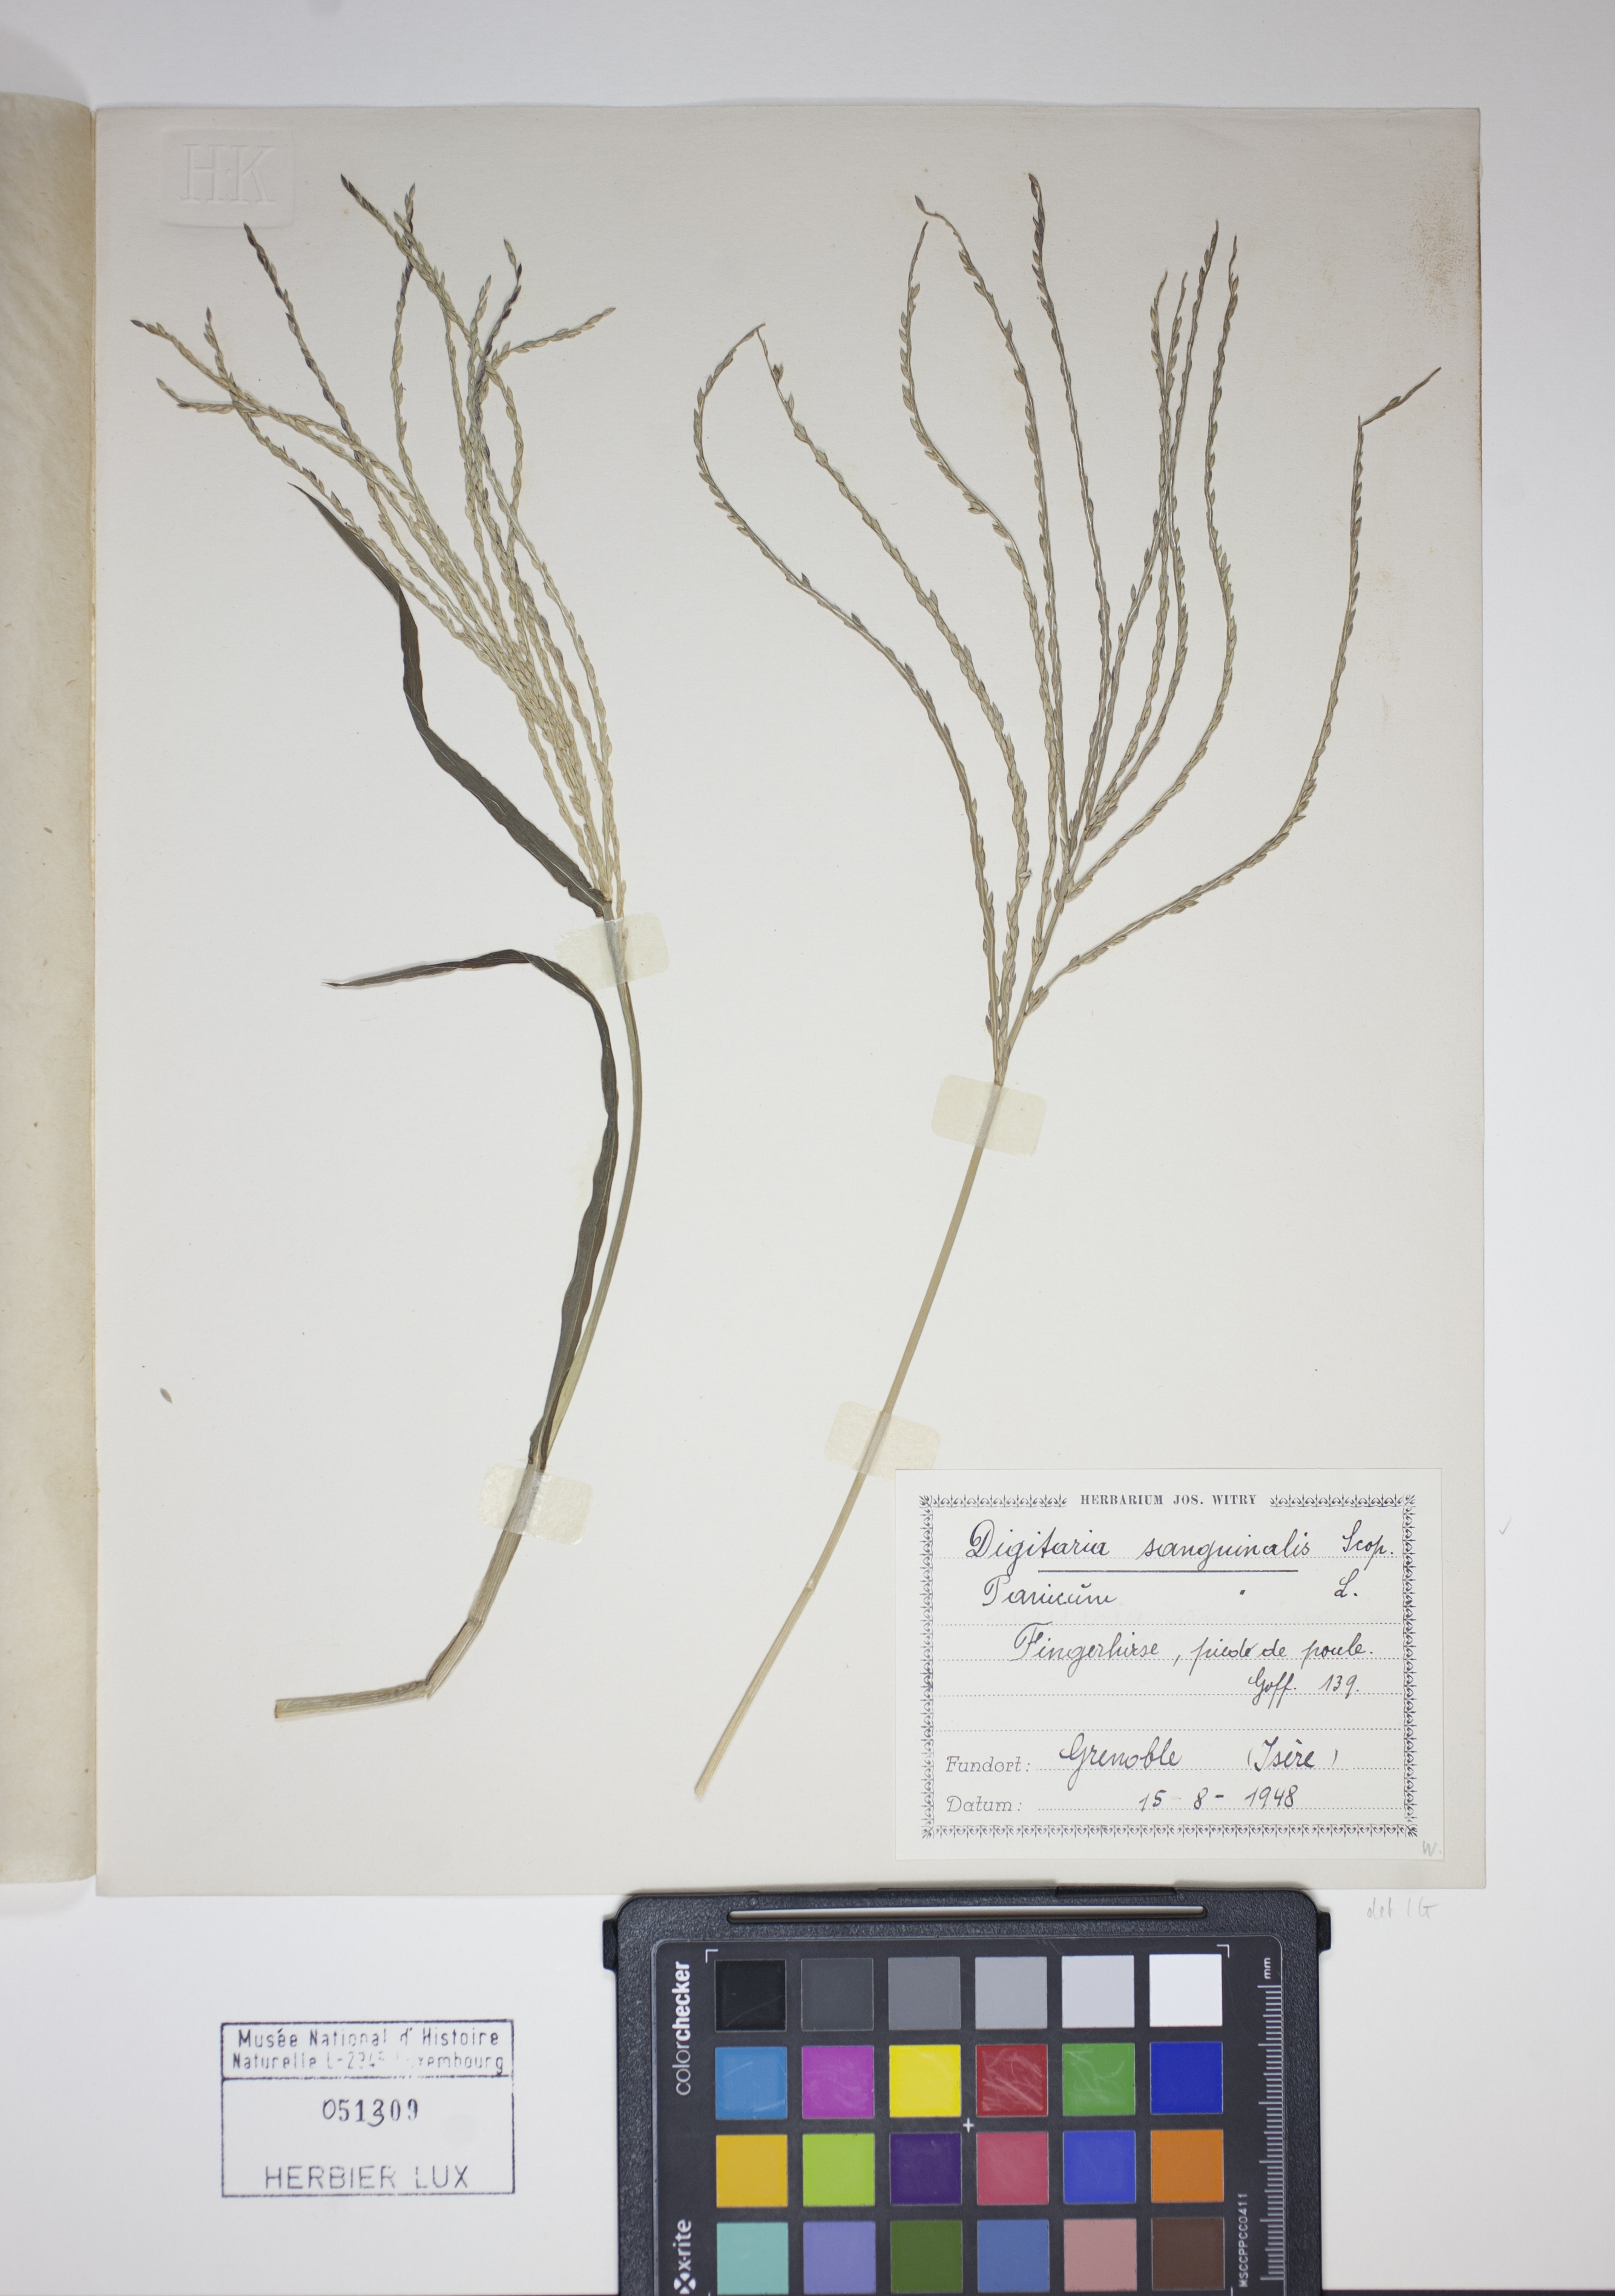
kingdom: Plantae
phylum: Tracheophyta
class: Liliopsida
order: Poales
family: Poaceae
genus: Digitaria
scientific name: Digitaria sanguinalis
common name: Hairy crabgrass
